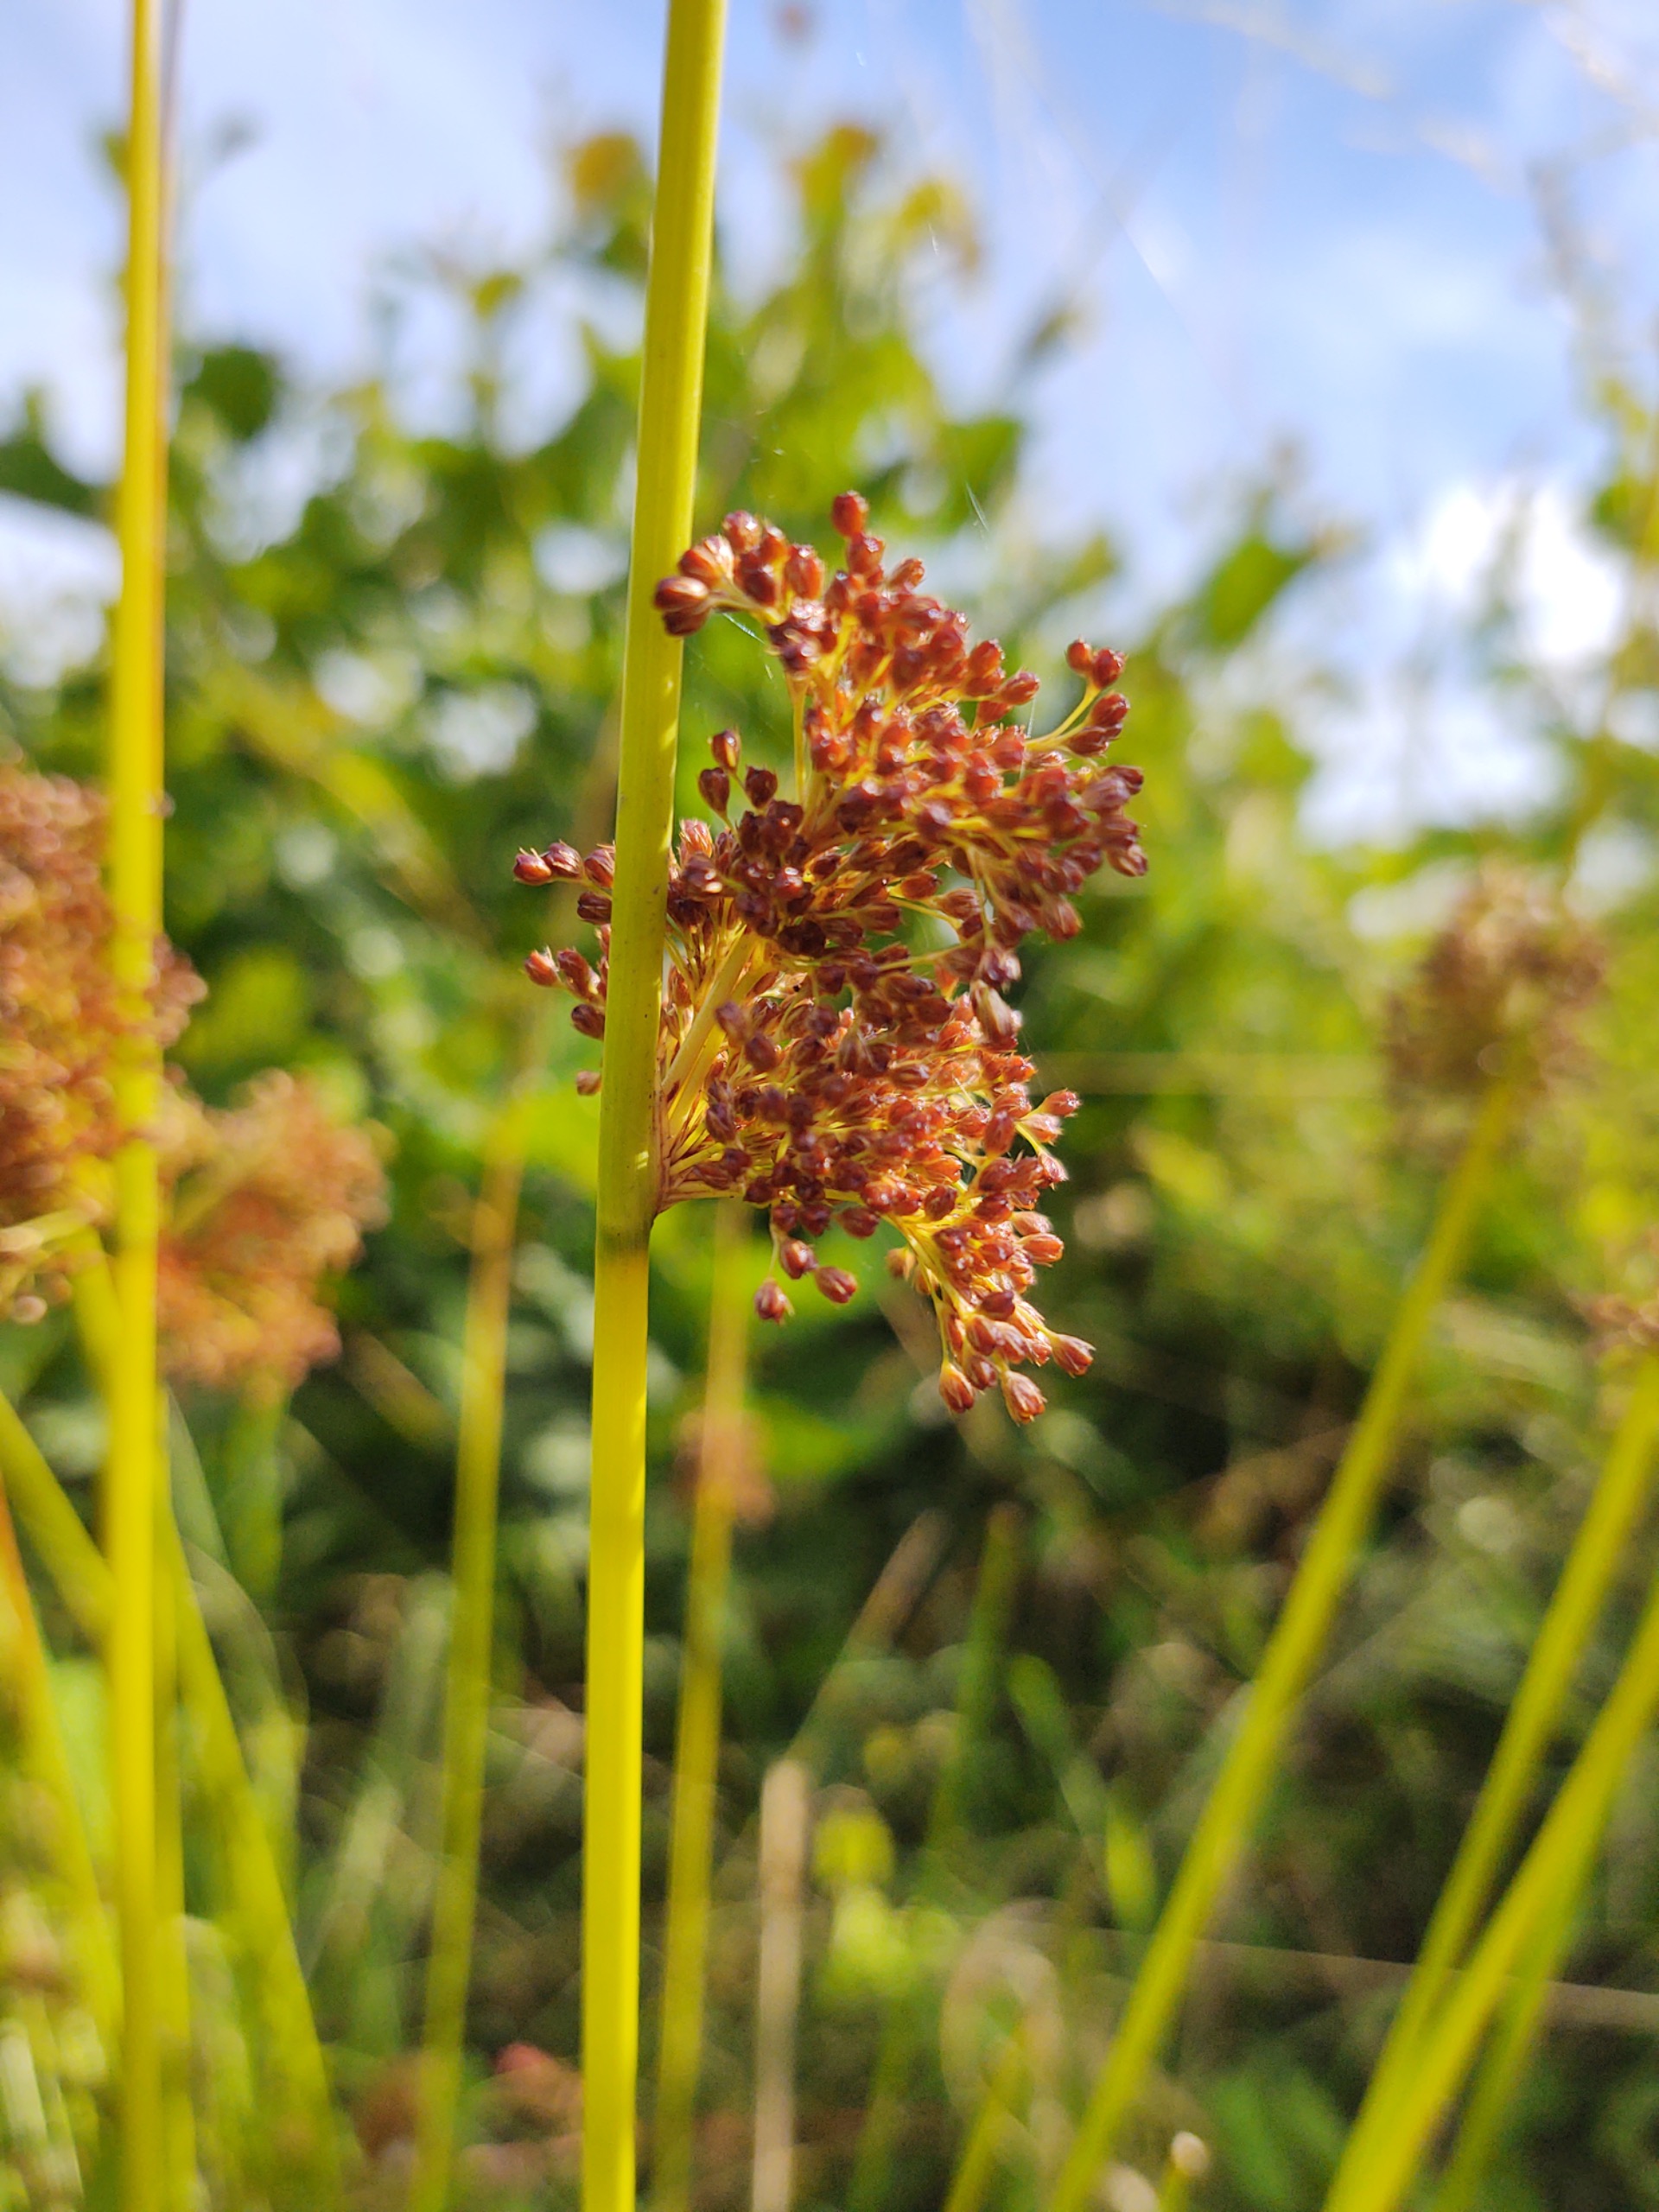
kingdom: Plantae
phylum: Tracheophyta
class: Liliopsida
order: Poales
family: Juncaceae
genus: Juncus
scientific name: Juncus effusus
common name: Lyse-siv
